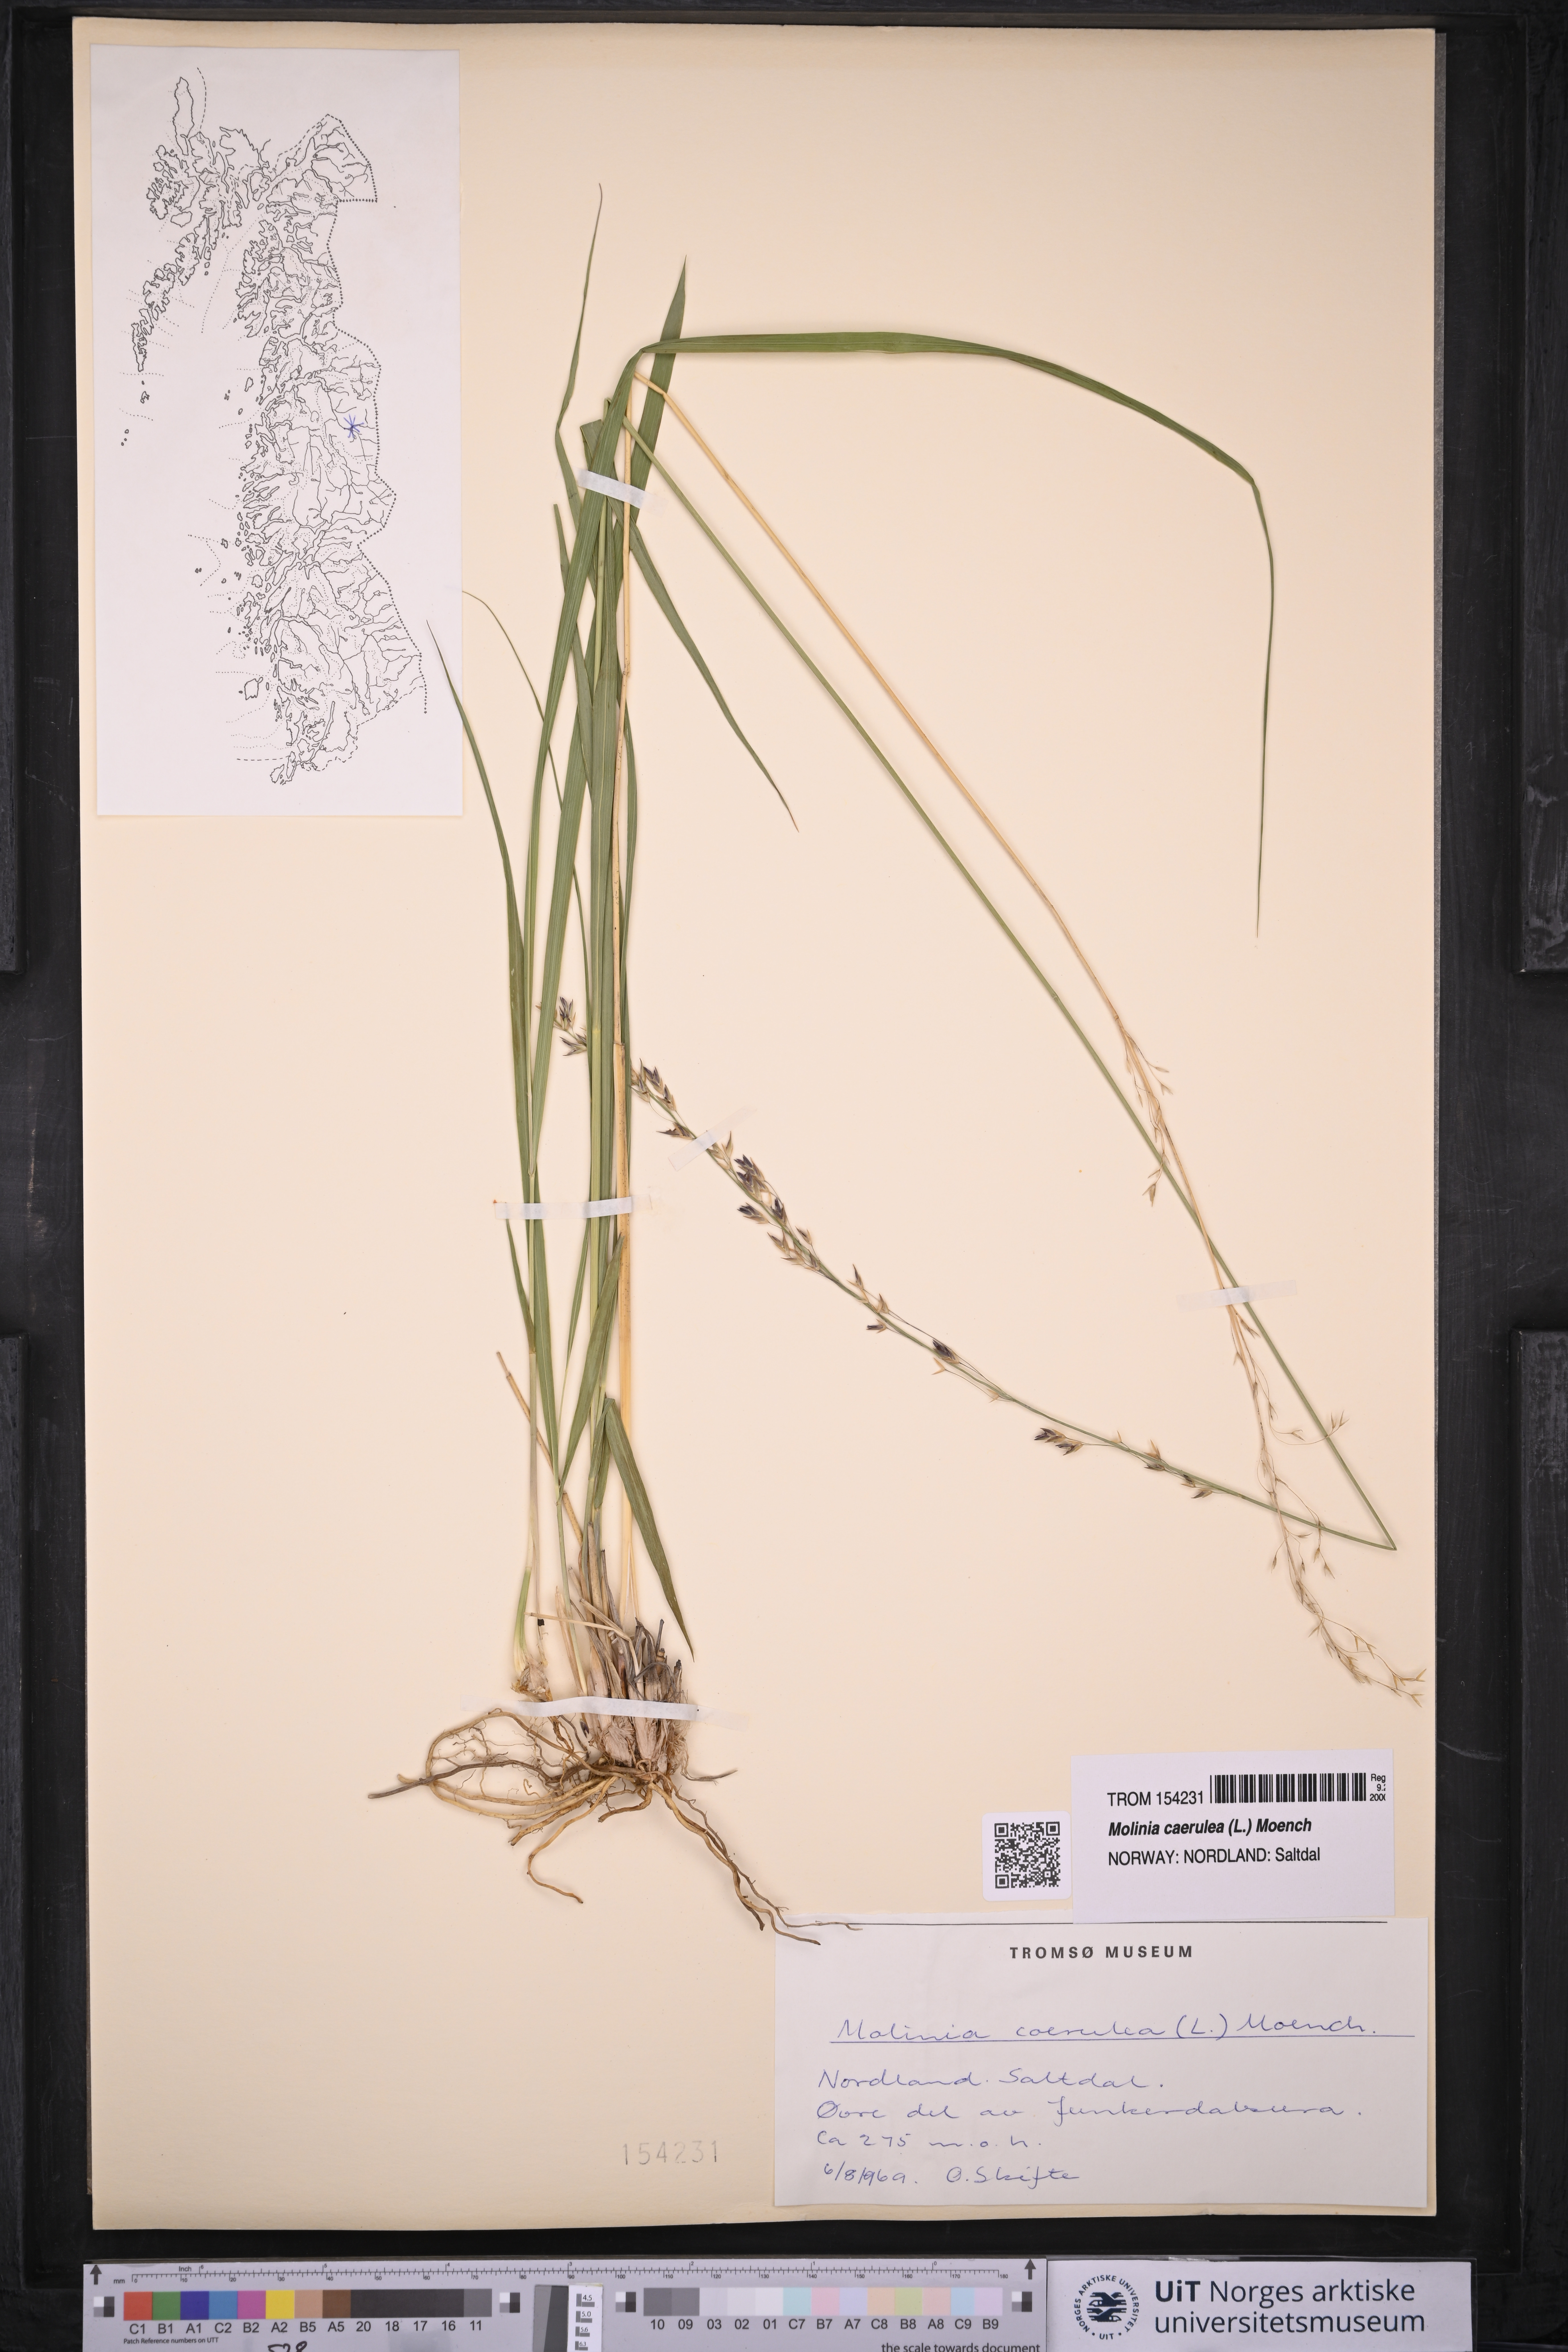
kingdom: Plantae
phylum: Tracheophyta
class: Liliopsida
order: Poales
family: Poaceae
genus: Molinia
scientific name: Molinia caerulea
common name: Purple moor-grass
